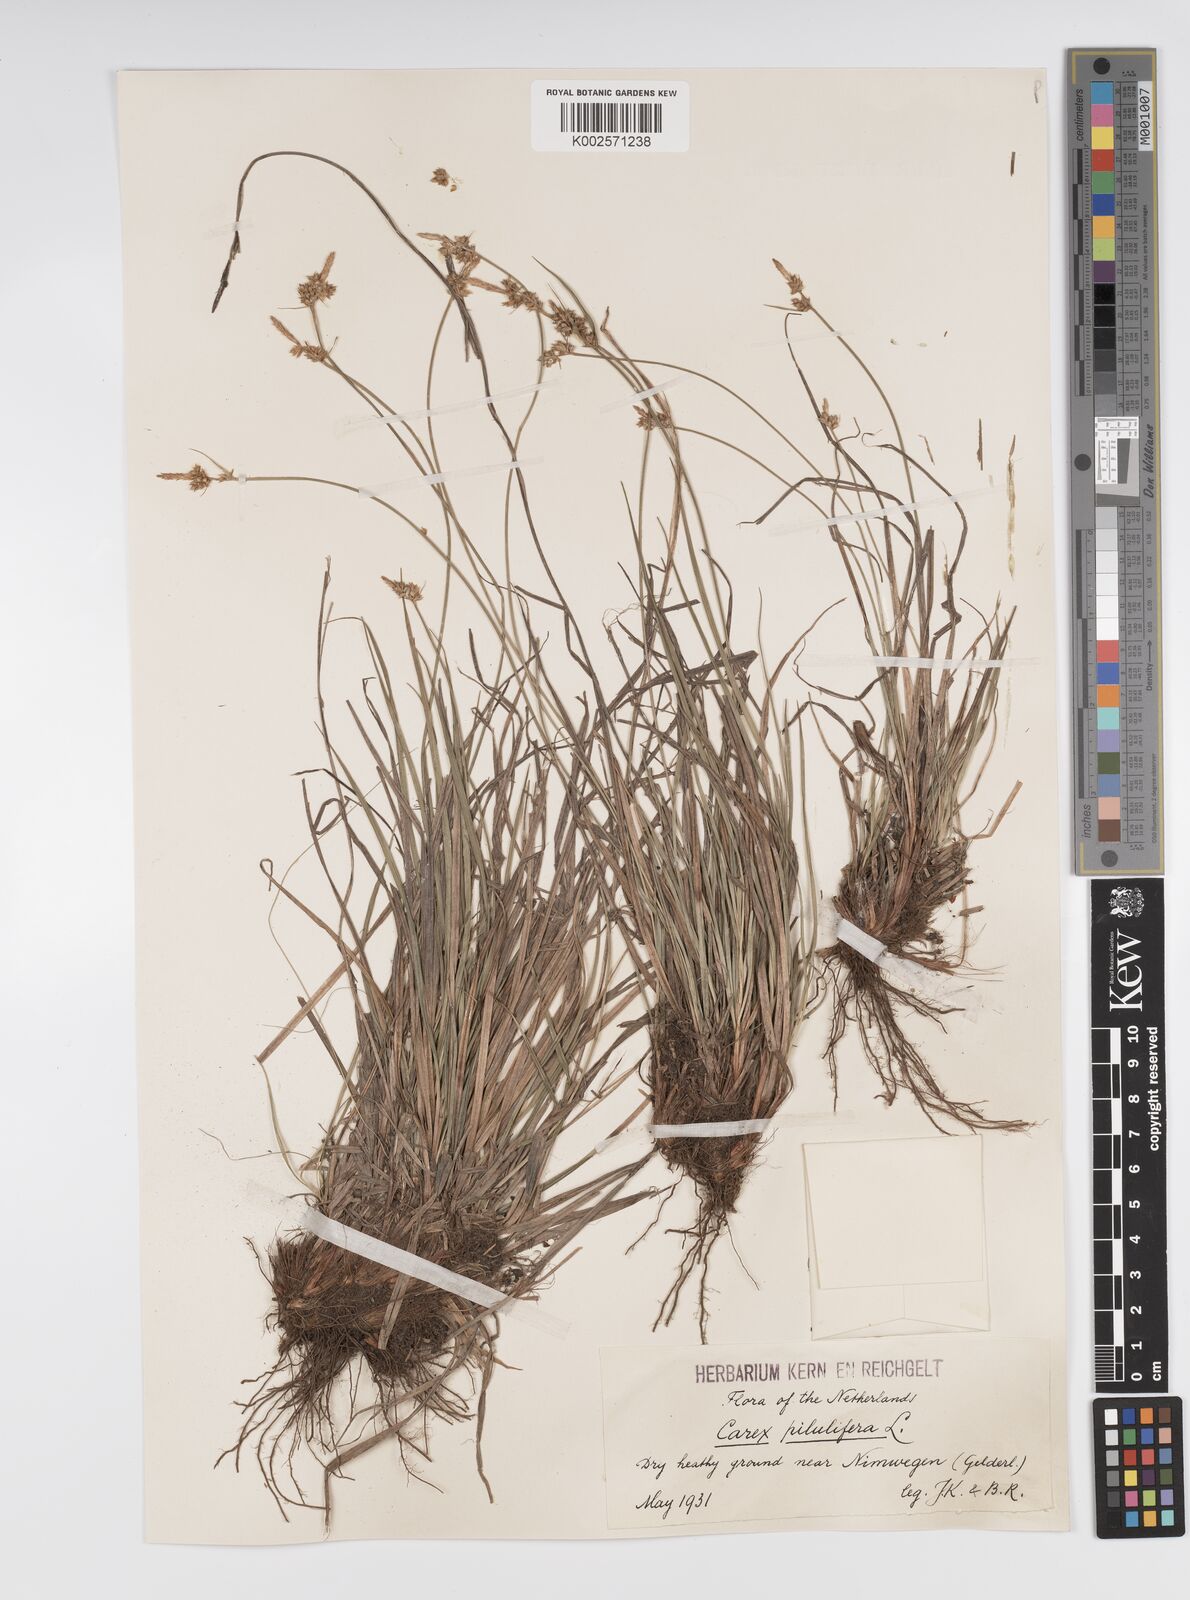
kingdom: Plantae
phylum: Tracheophyta
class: Liliopsida
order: Poales
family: Cyperaceae
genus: Carex
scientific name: Carex pilulifera
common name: Pill sedge
